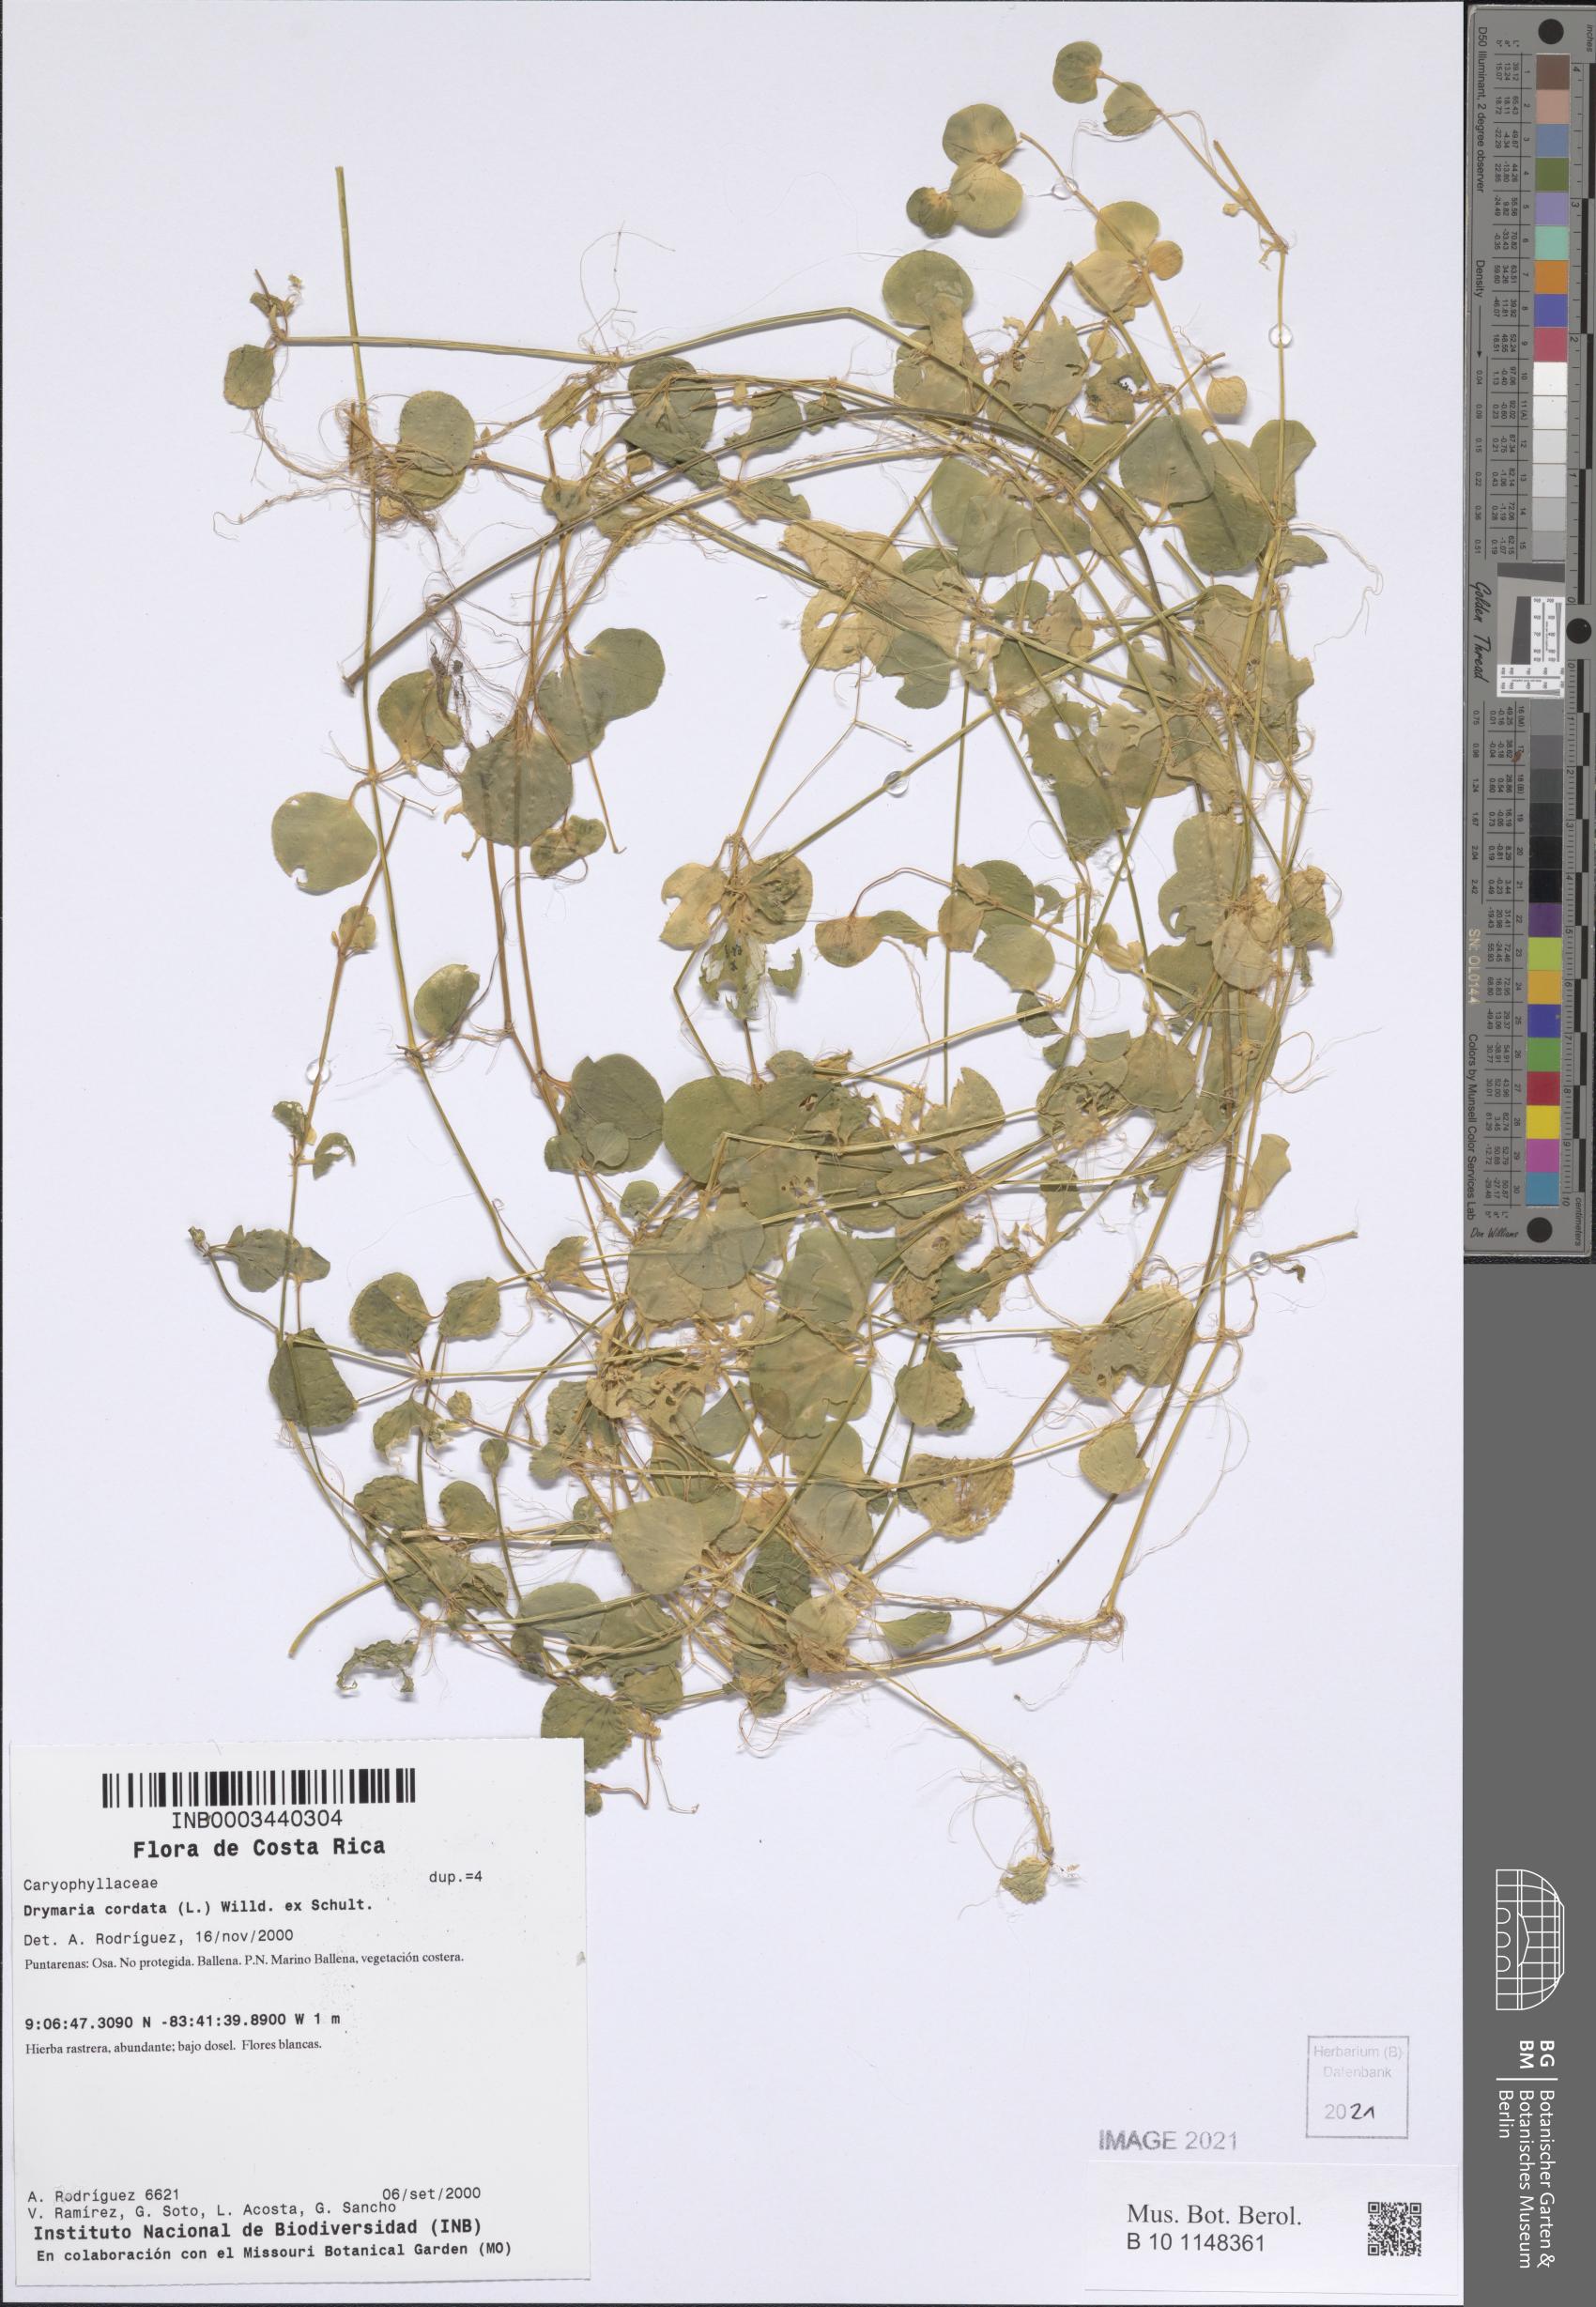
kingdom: Plantae
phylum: Tracheophyta
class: Magnoliopsida
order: Caryophyllales
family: Caryophyllaceae
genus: Drymaria
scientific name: Drymaria cordata
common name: Whitesnow
